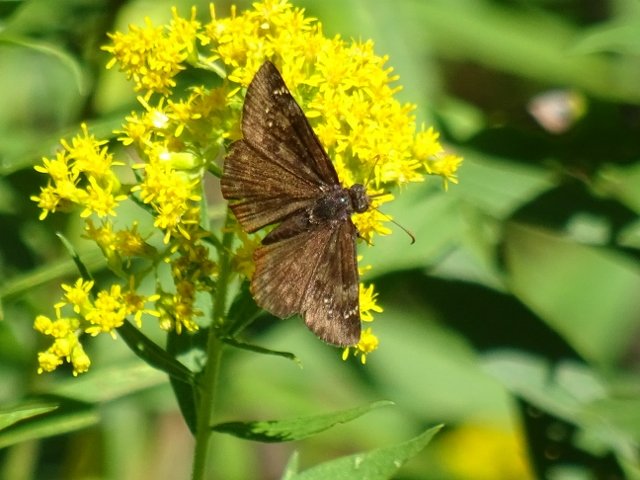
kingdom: Animalia
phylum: Arthropoda
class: Insecta
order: Lepidoptera
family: Hesperiidae
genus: Gesta
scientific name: Gesta
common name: Wild Indigo Duskywing
